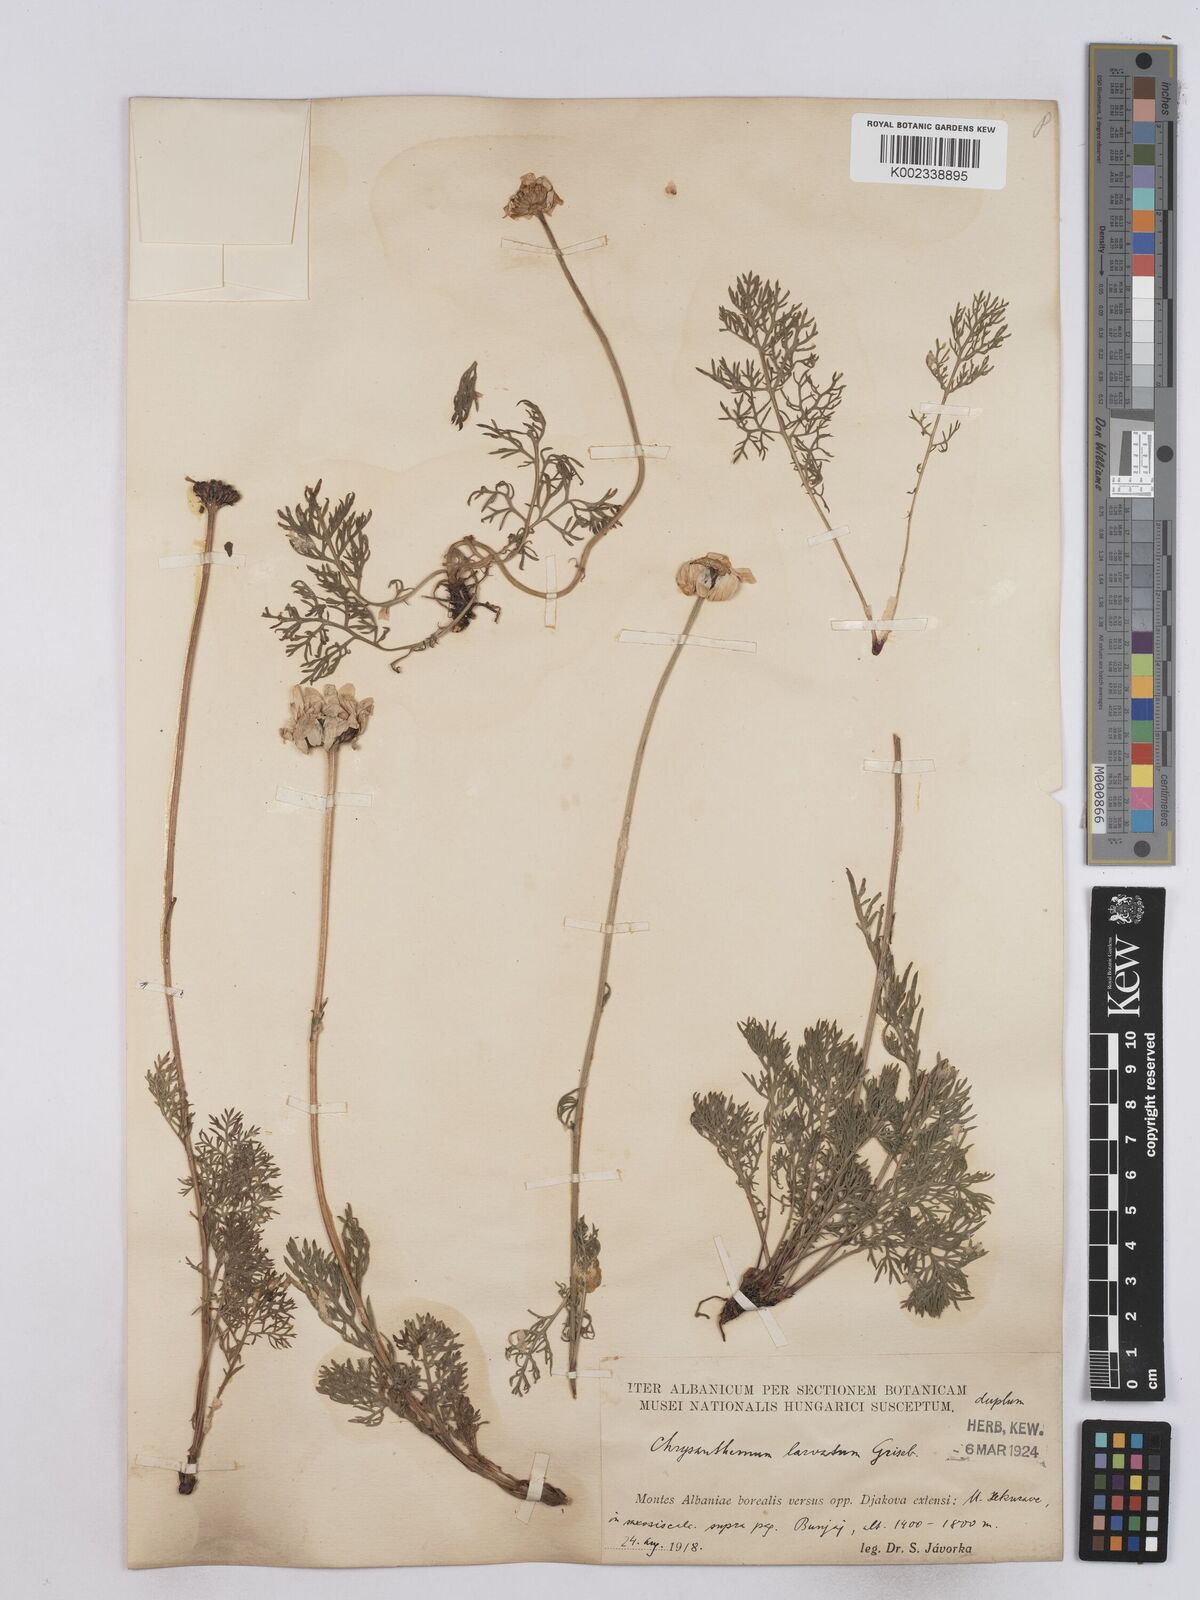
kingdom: Plantae
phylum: Tracheophyta
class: Magnoliopsida
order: Asterales
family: Asteraceae
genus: Leucanthemum
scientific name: Leucanthemum coronopifolium
